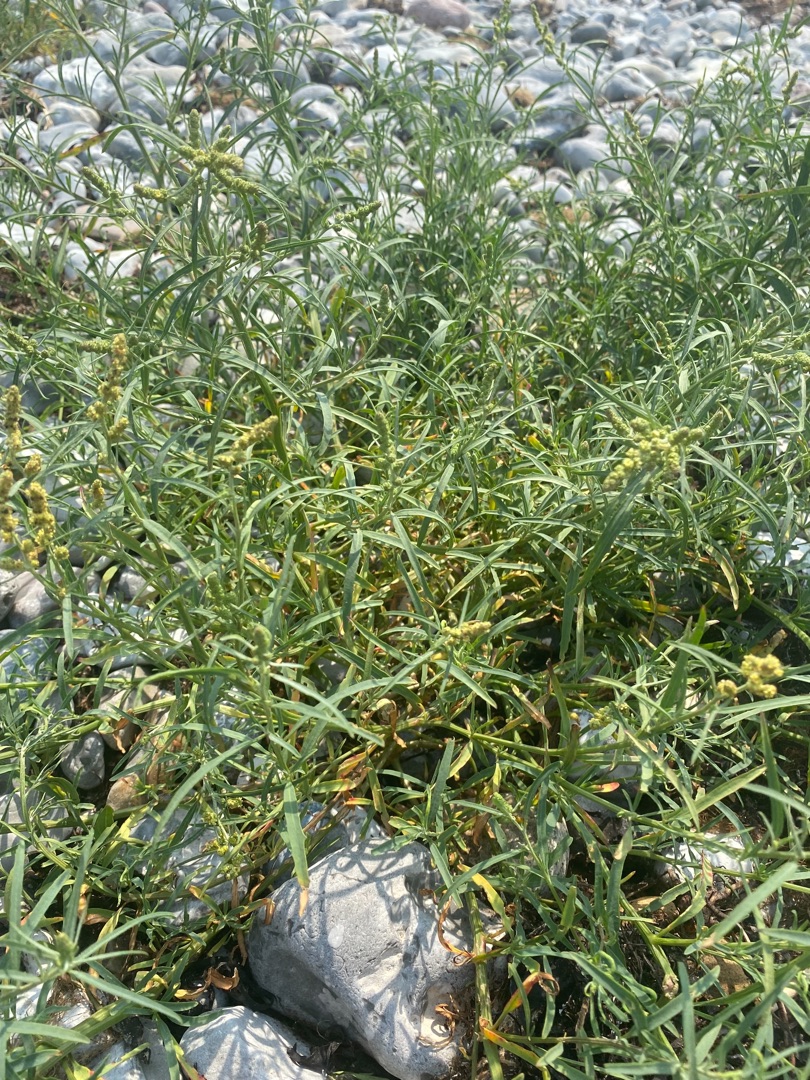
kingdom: Plantae
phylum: Tracheophyta
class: Magnoliopsida
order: Caryophyllales
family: Amaranthaceae
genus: Atriplex
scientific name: Atriplex littoralis
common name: Strand-mælde
